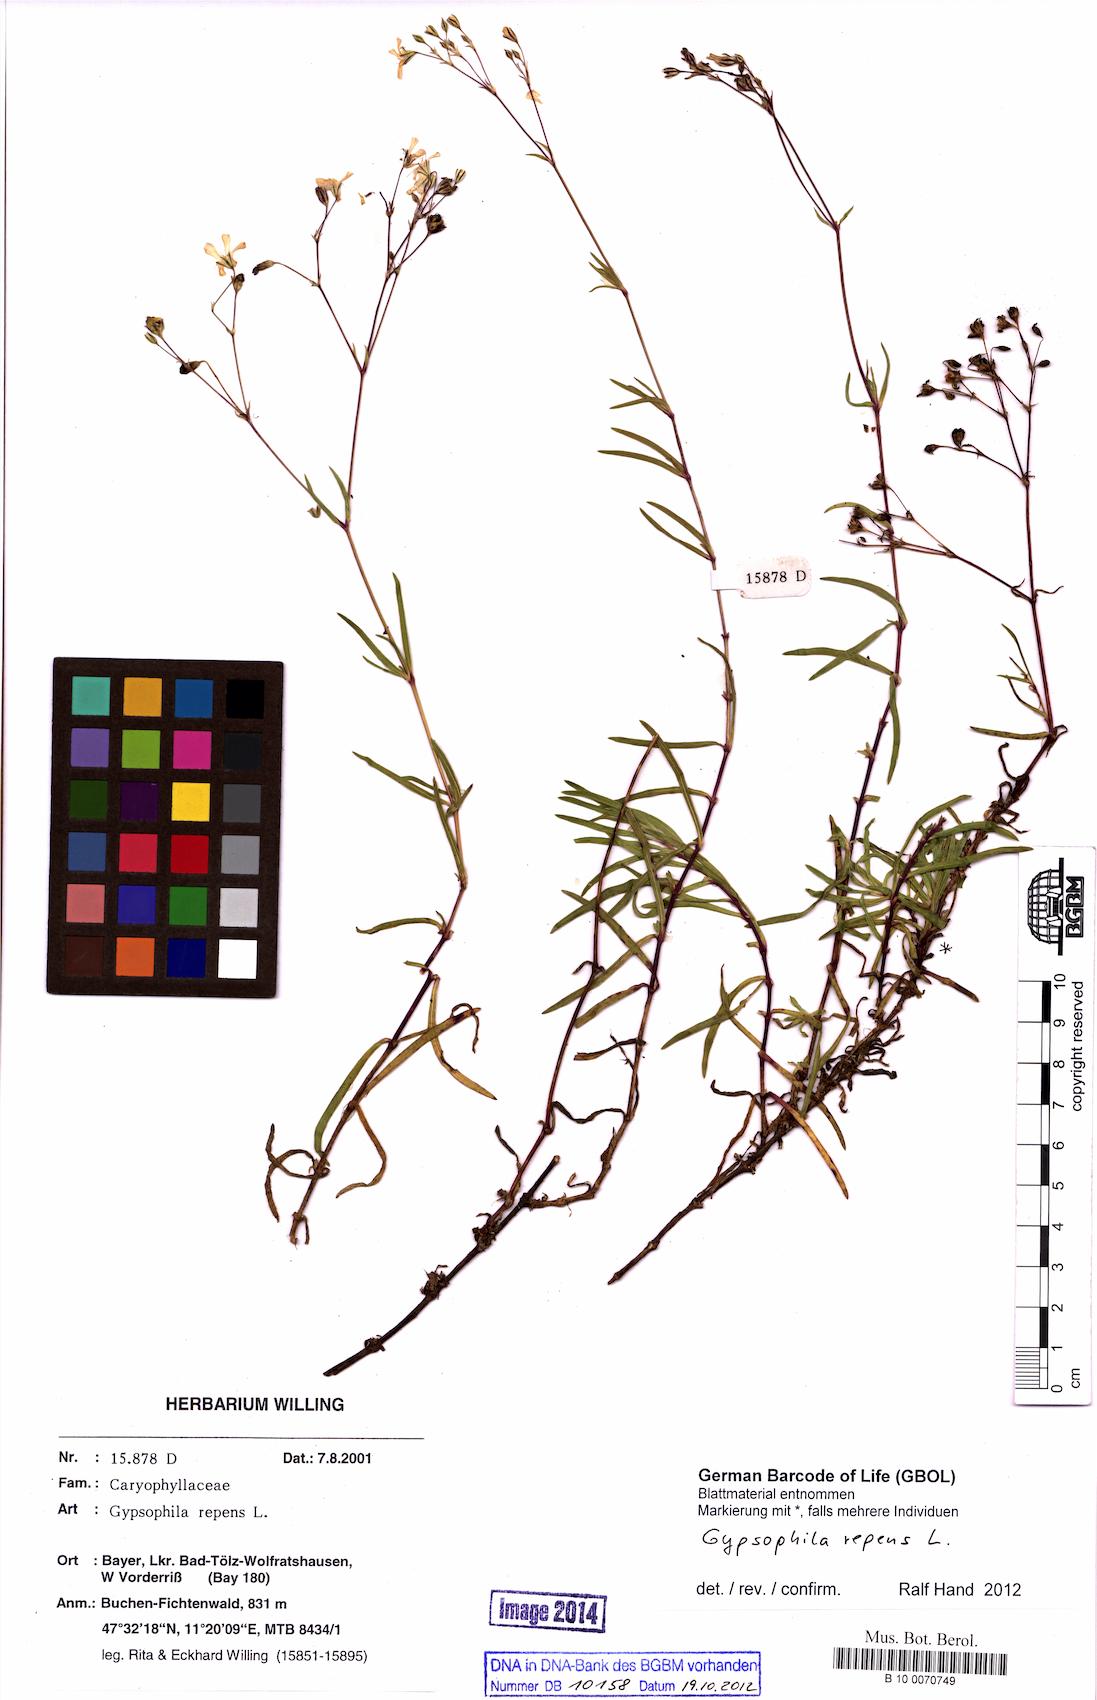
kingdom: Plantae
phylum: Tracheophyta
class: Magnoliopsida
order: Caryophyllales
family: Caryophyllaceae
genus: Gypsophila
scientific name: Gypsophila repens
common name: Creeping baby's-breath
